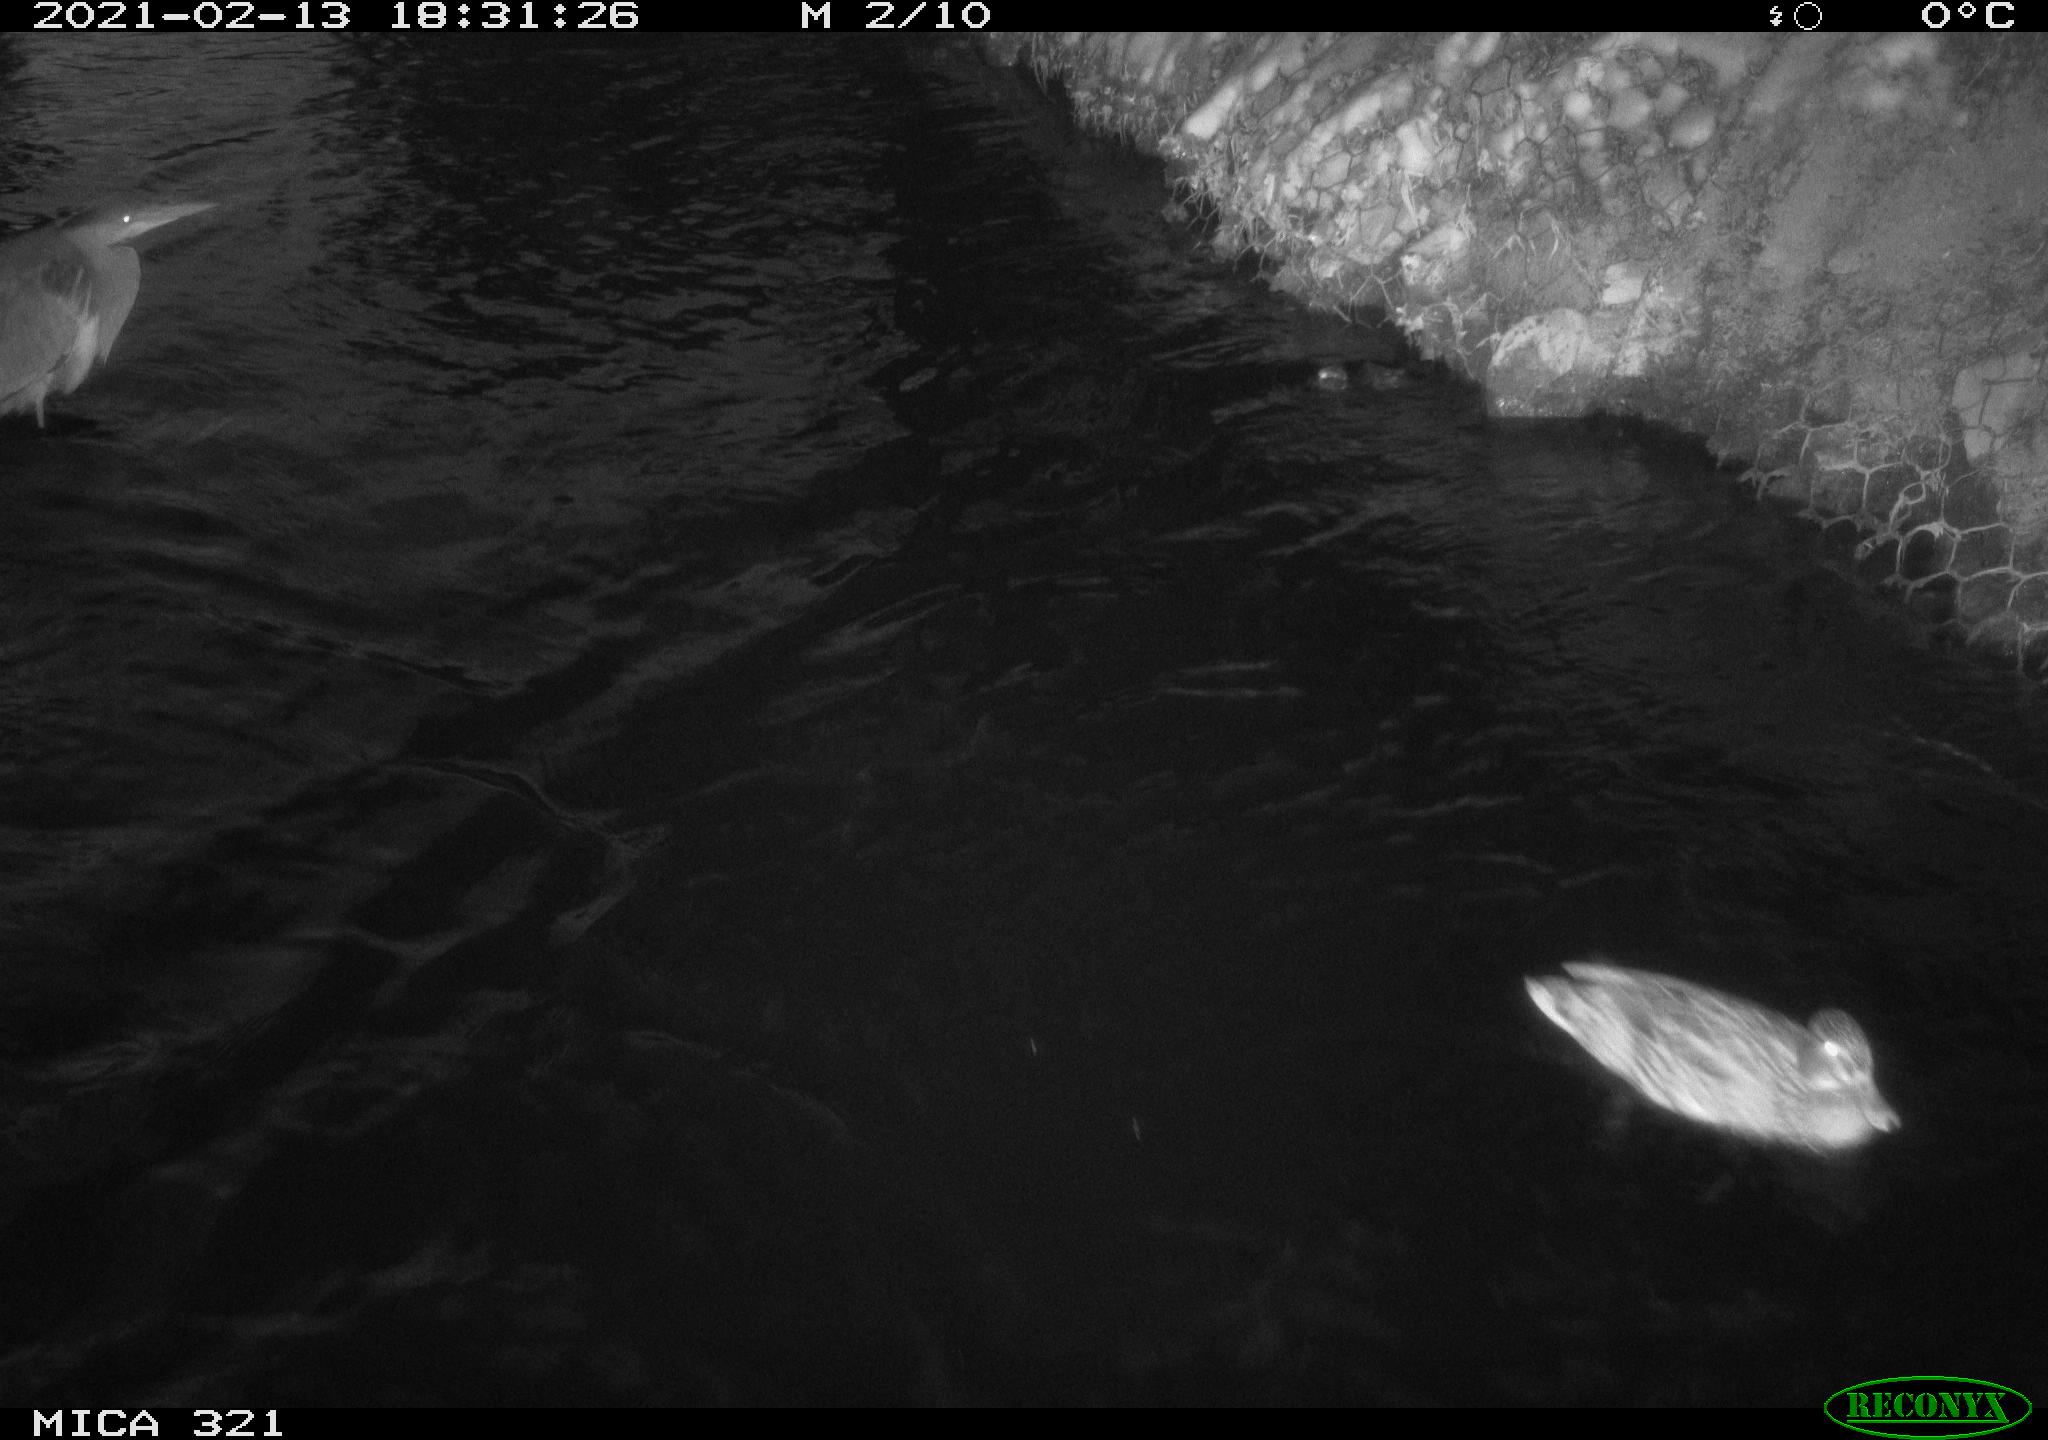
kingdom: Animalia
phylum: Chordata
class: Aves
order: Anseriformes
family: Anatidae
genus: Anas
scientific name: Anas platyrhynchos
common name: Mallard
